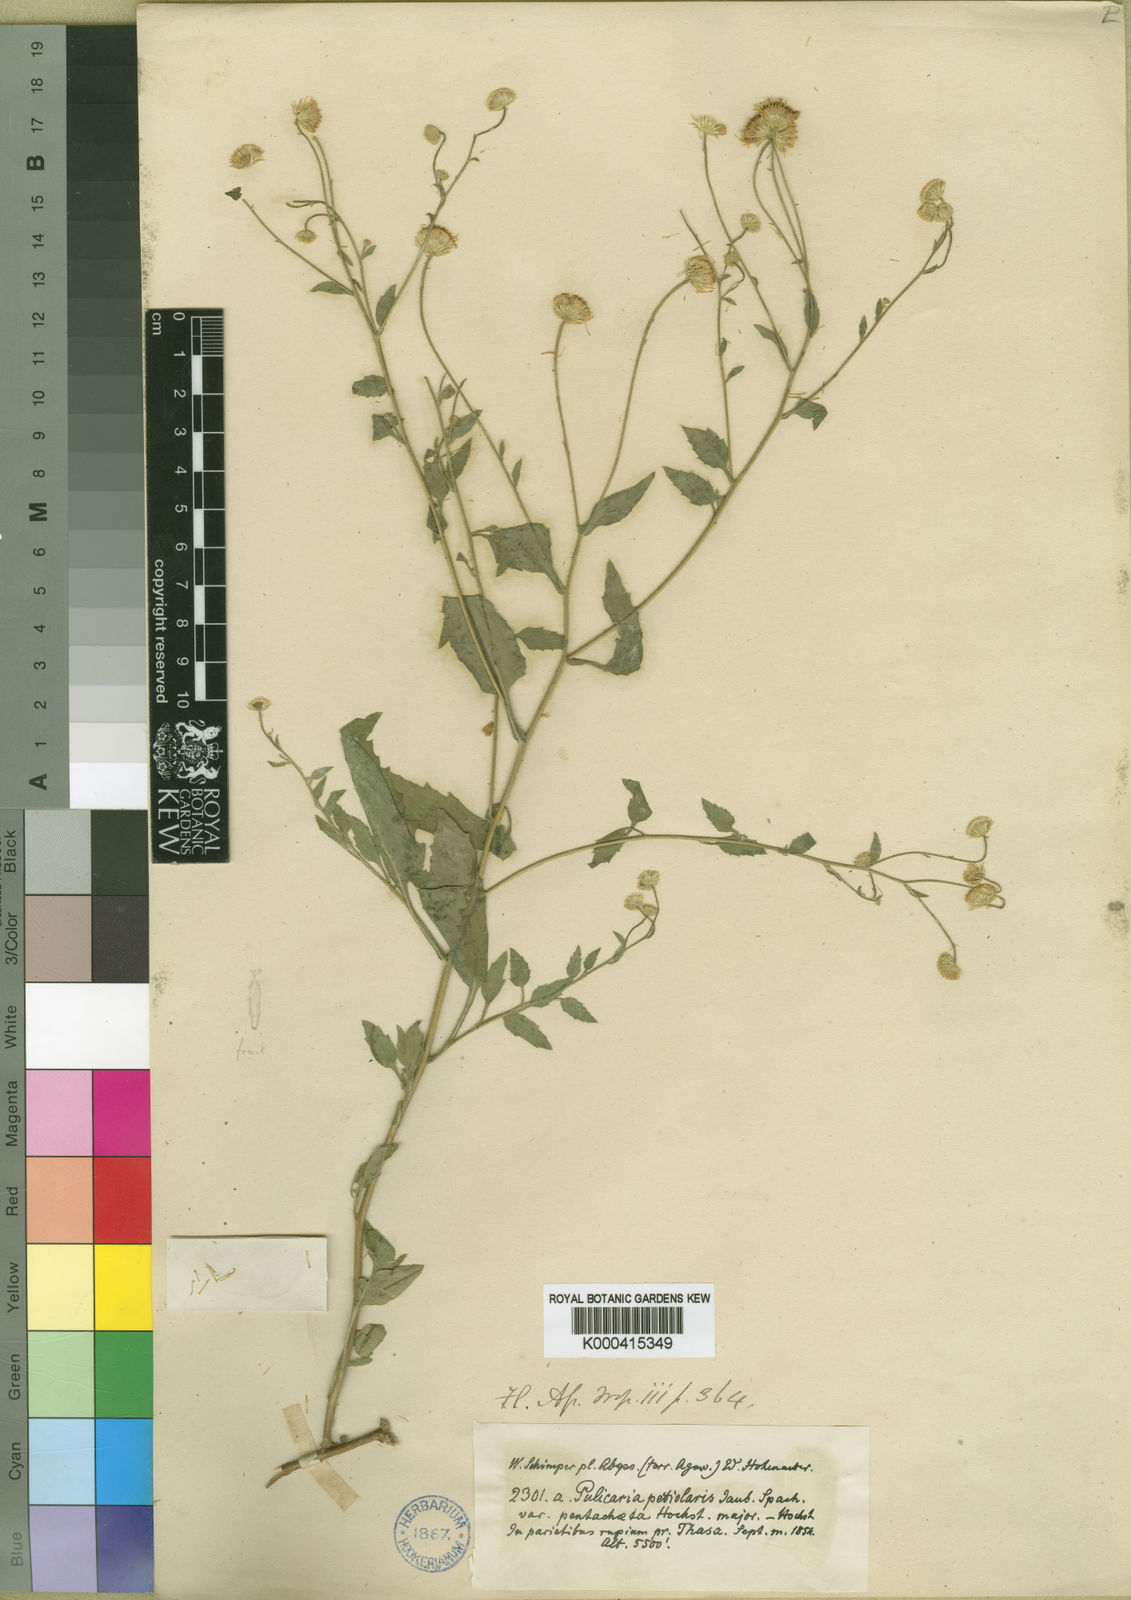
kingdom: Plantae
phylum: Tracheophyta
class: Magnoliopsida
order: Asterales
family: Asteraceae
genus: Pulicaria
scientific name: Pulicaria petiolaris
